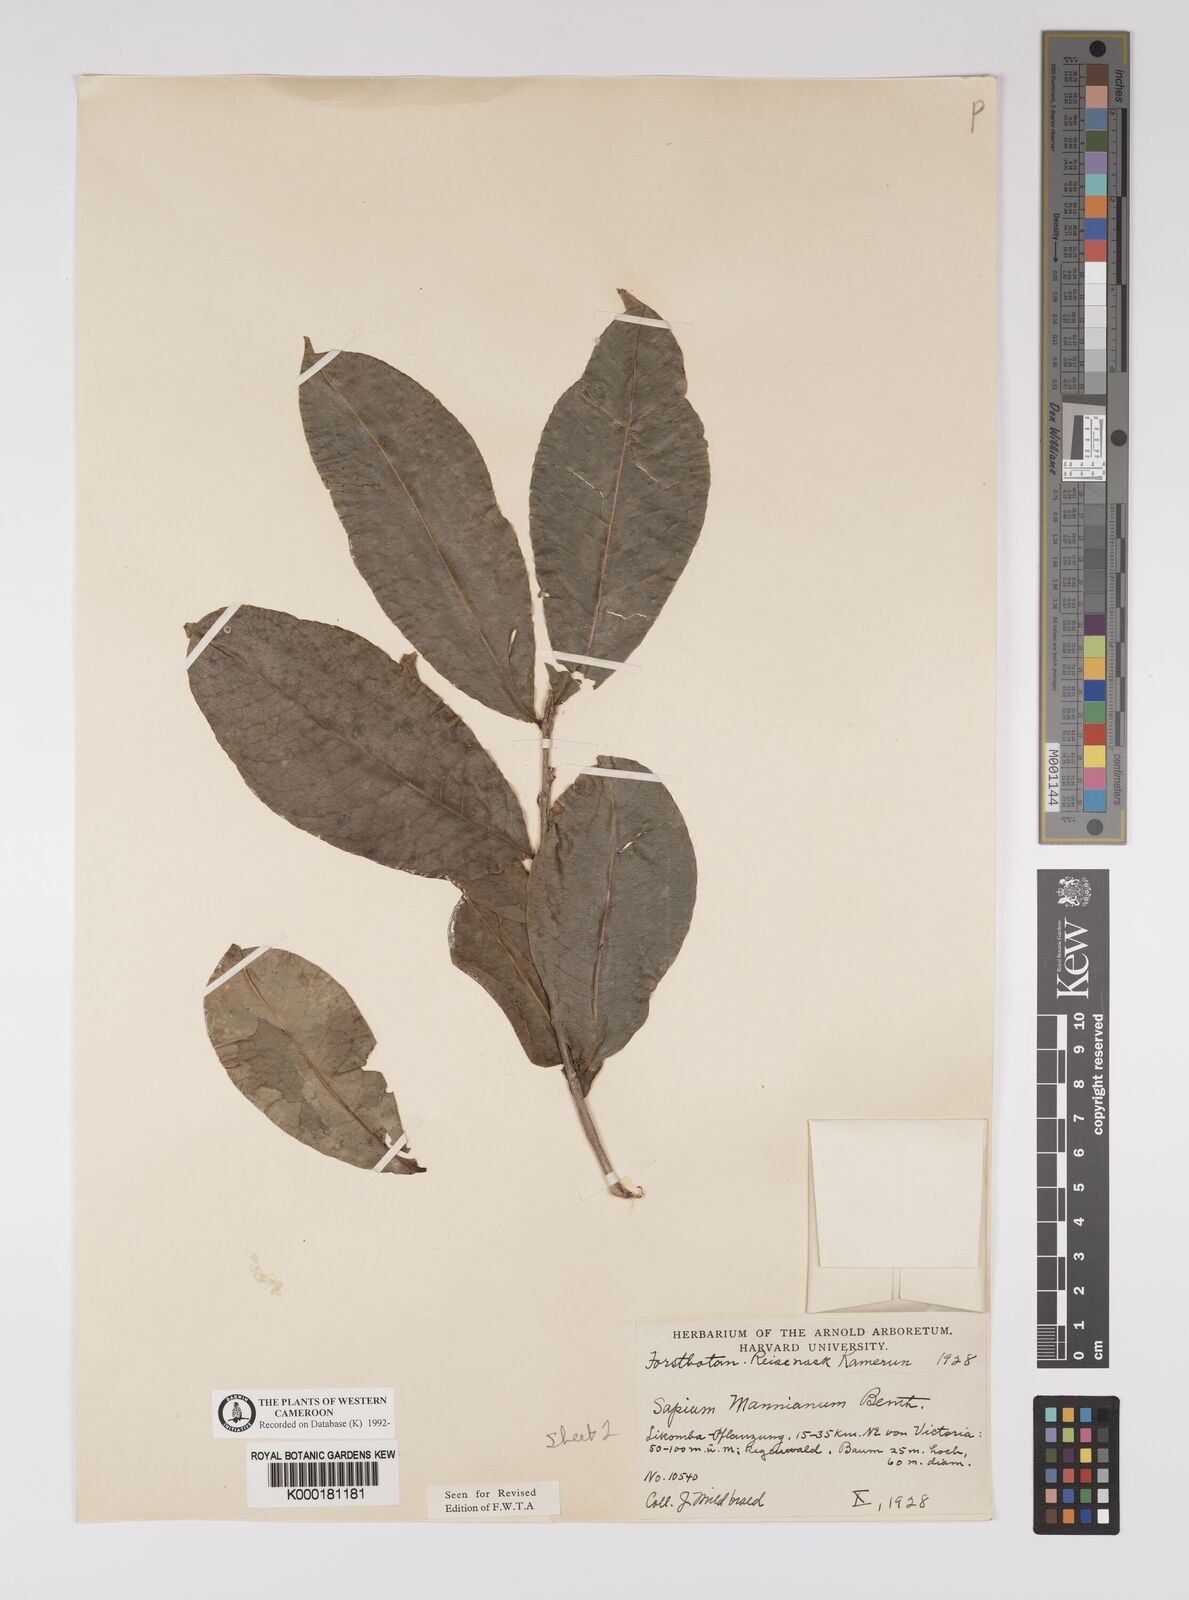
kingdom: Plantae
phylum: Tracheophyta
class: Magnoliopsida
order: Malpighiales
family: Euphorbiaceae
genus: Shirakiopsis
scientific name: Shirakiopsis elliptica
